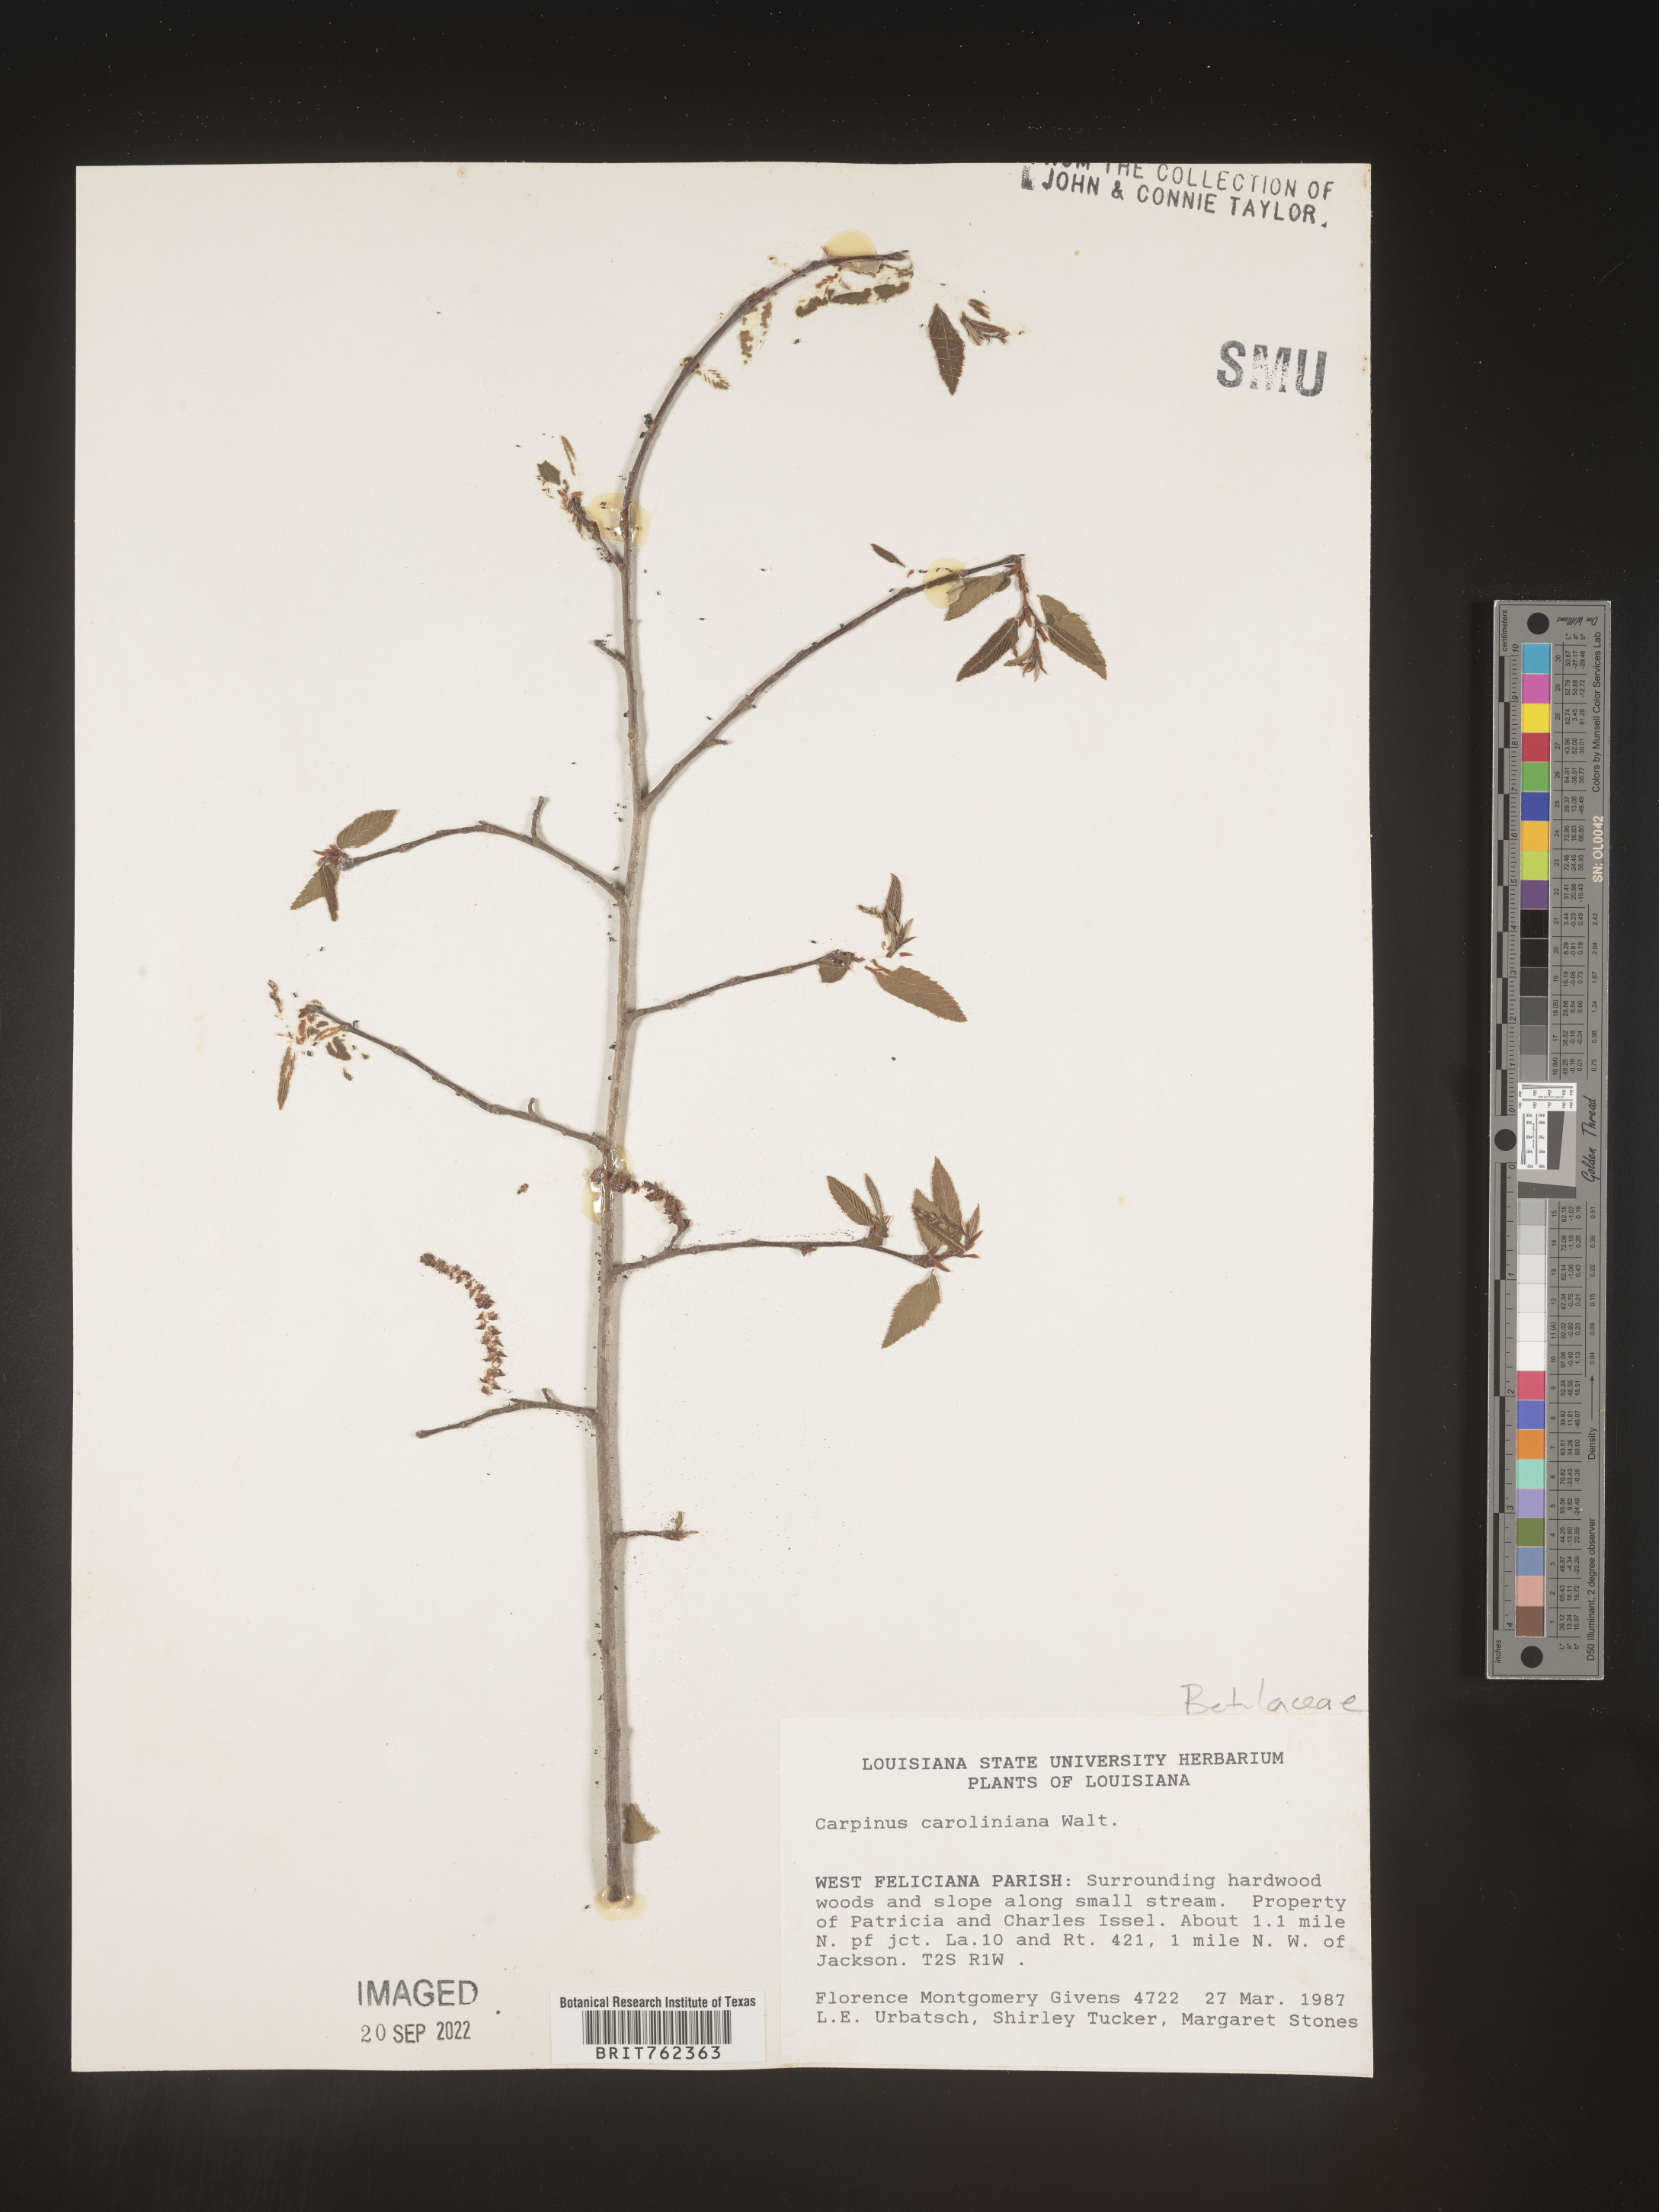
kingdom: Plantae
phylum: Tracheophyta
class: Magnoliopsida
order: Fagales
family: Betulaceae
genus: Carpinus
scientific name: Carpinus caroliniana
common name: American hornbeam
